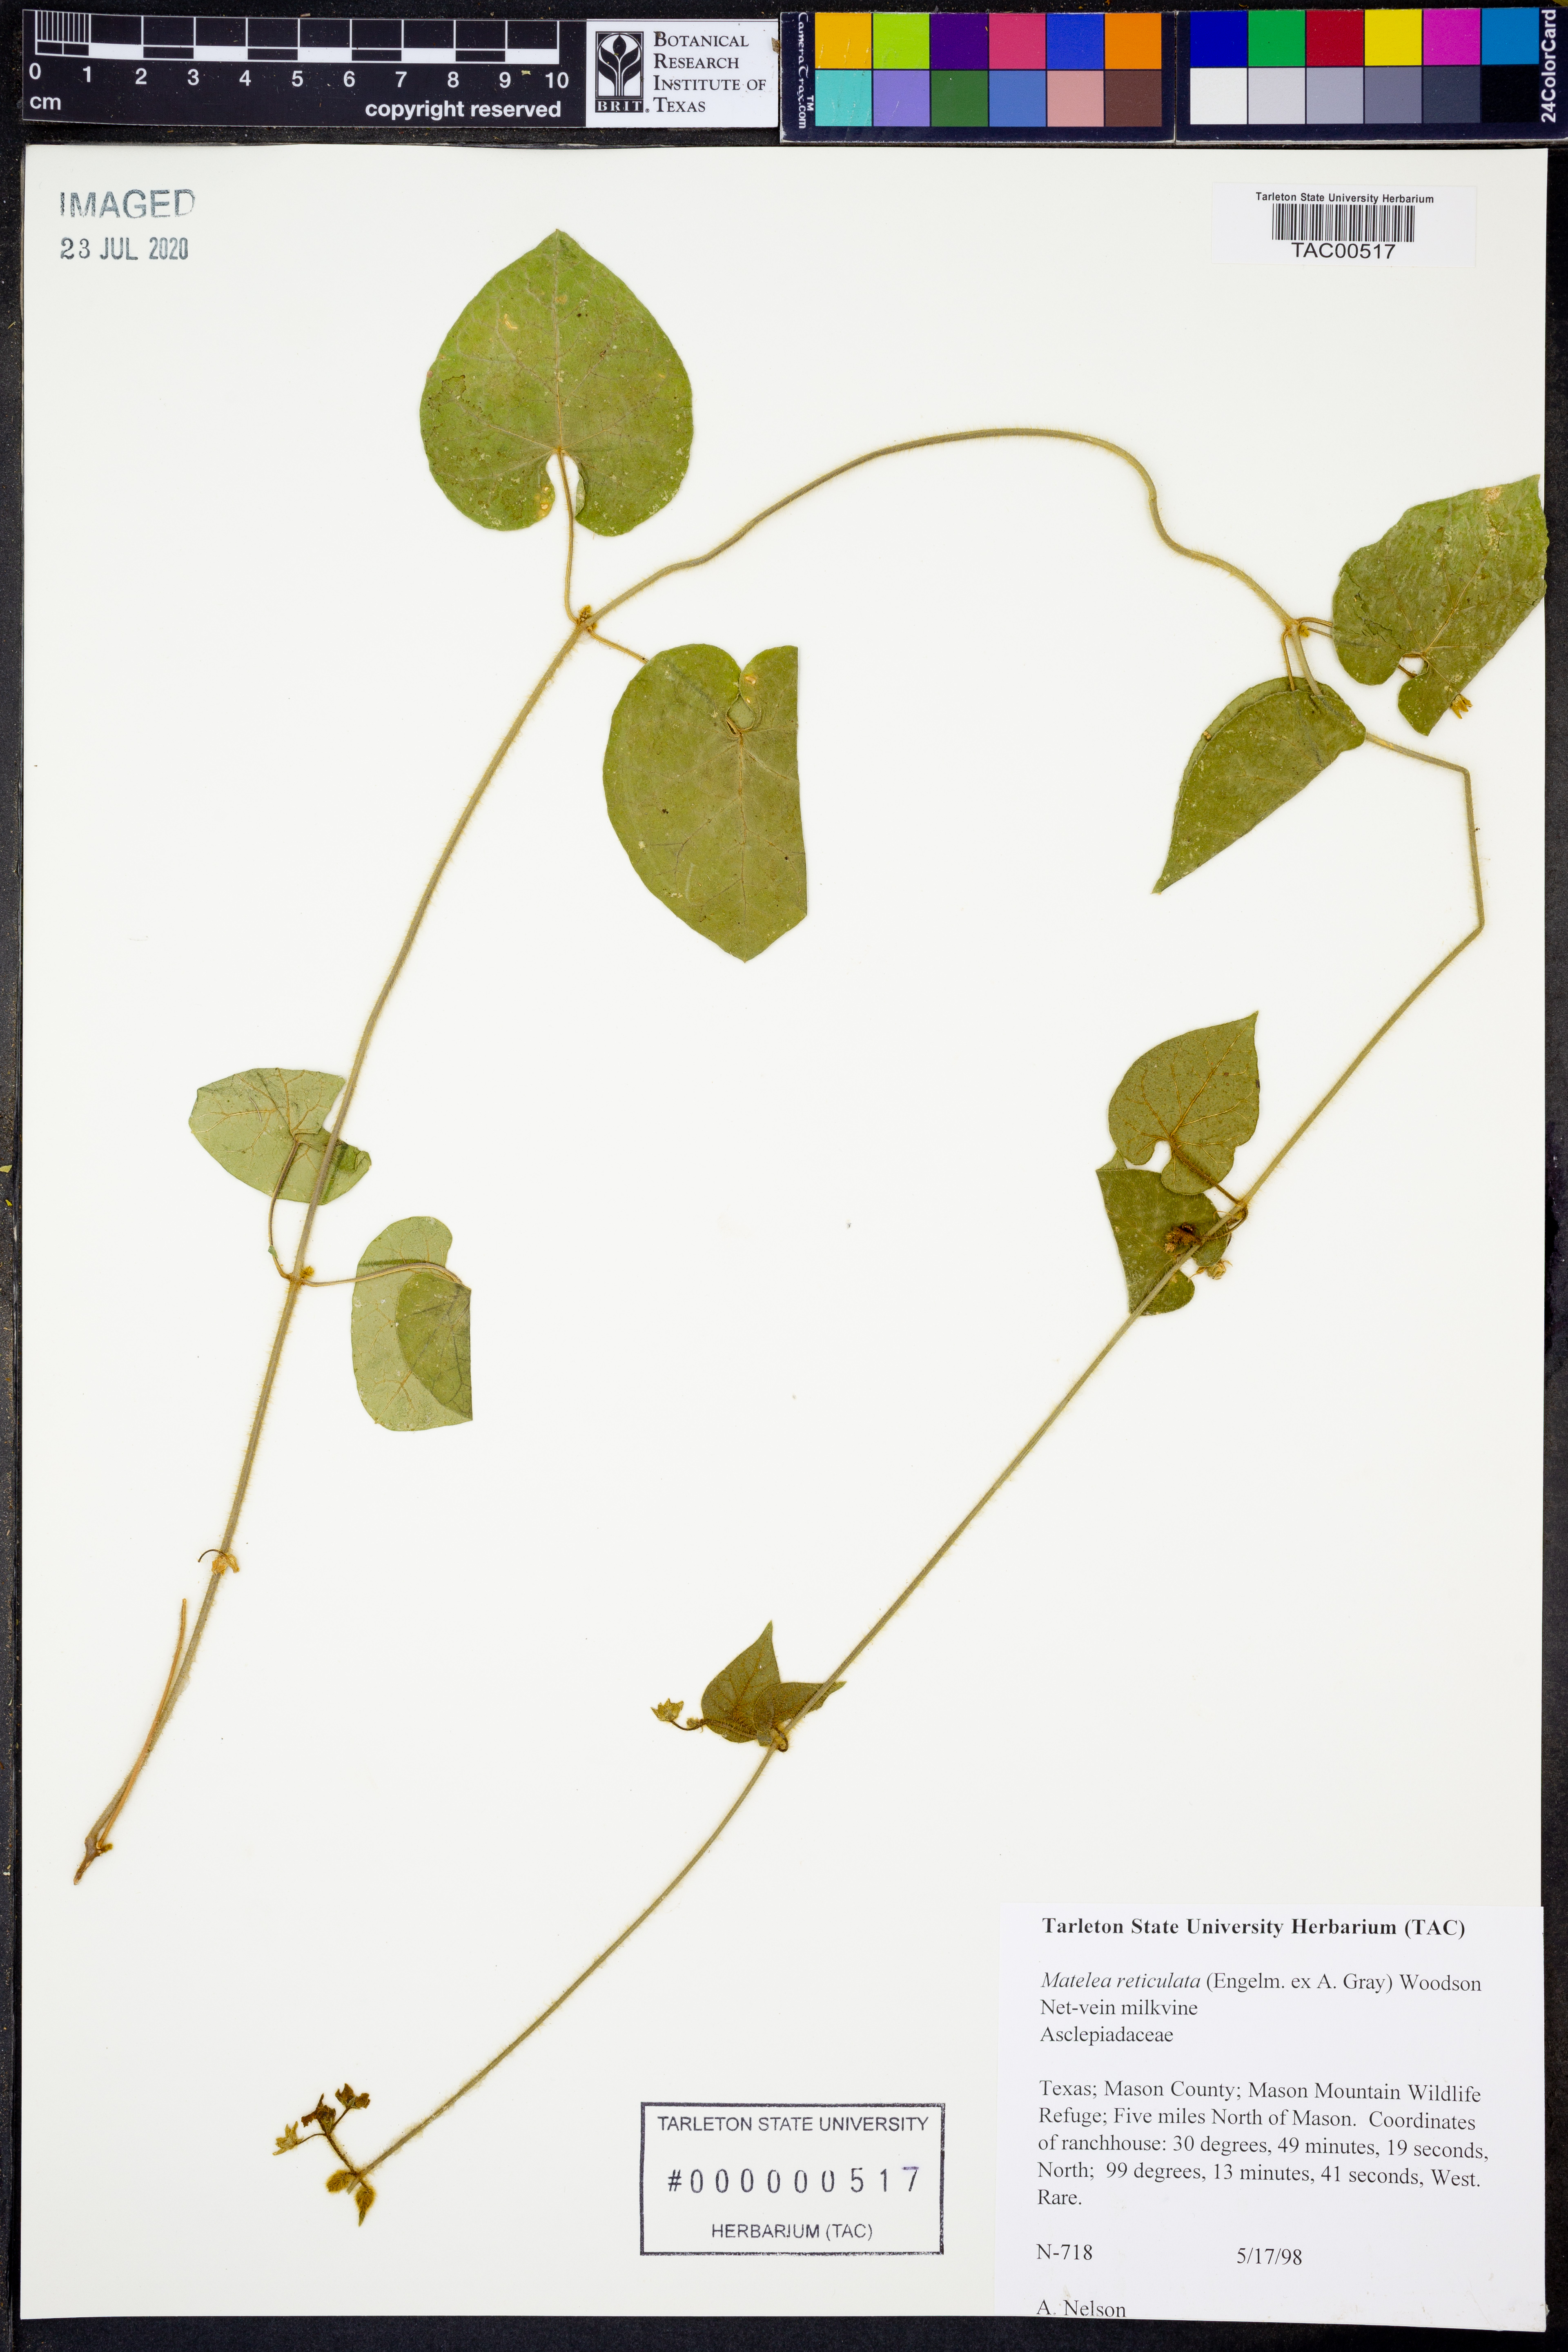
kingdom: Plantae
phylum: Tracheophyta
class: Magnoliopsida
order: Gentianales
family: Apocynaceae
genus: Dictyanthus
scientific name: Dictyanthus reticulatus
